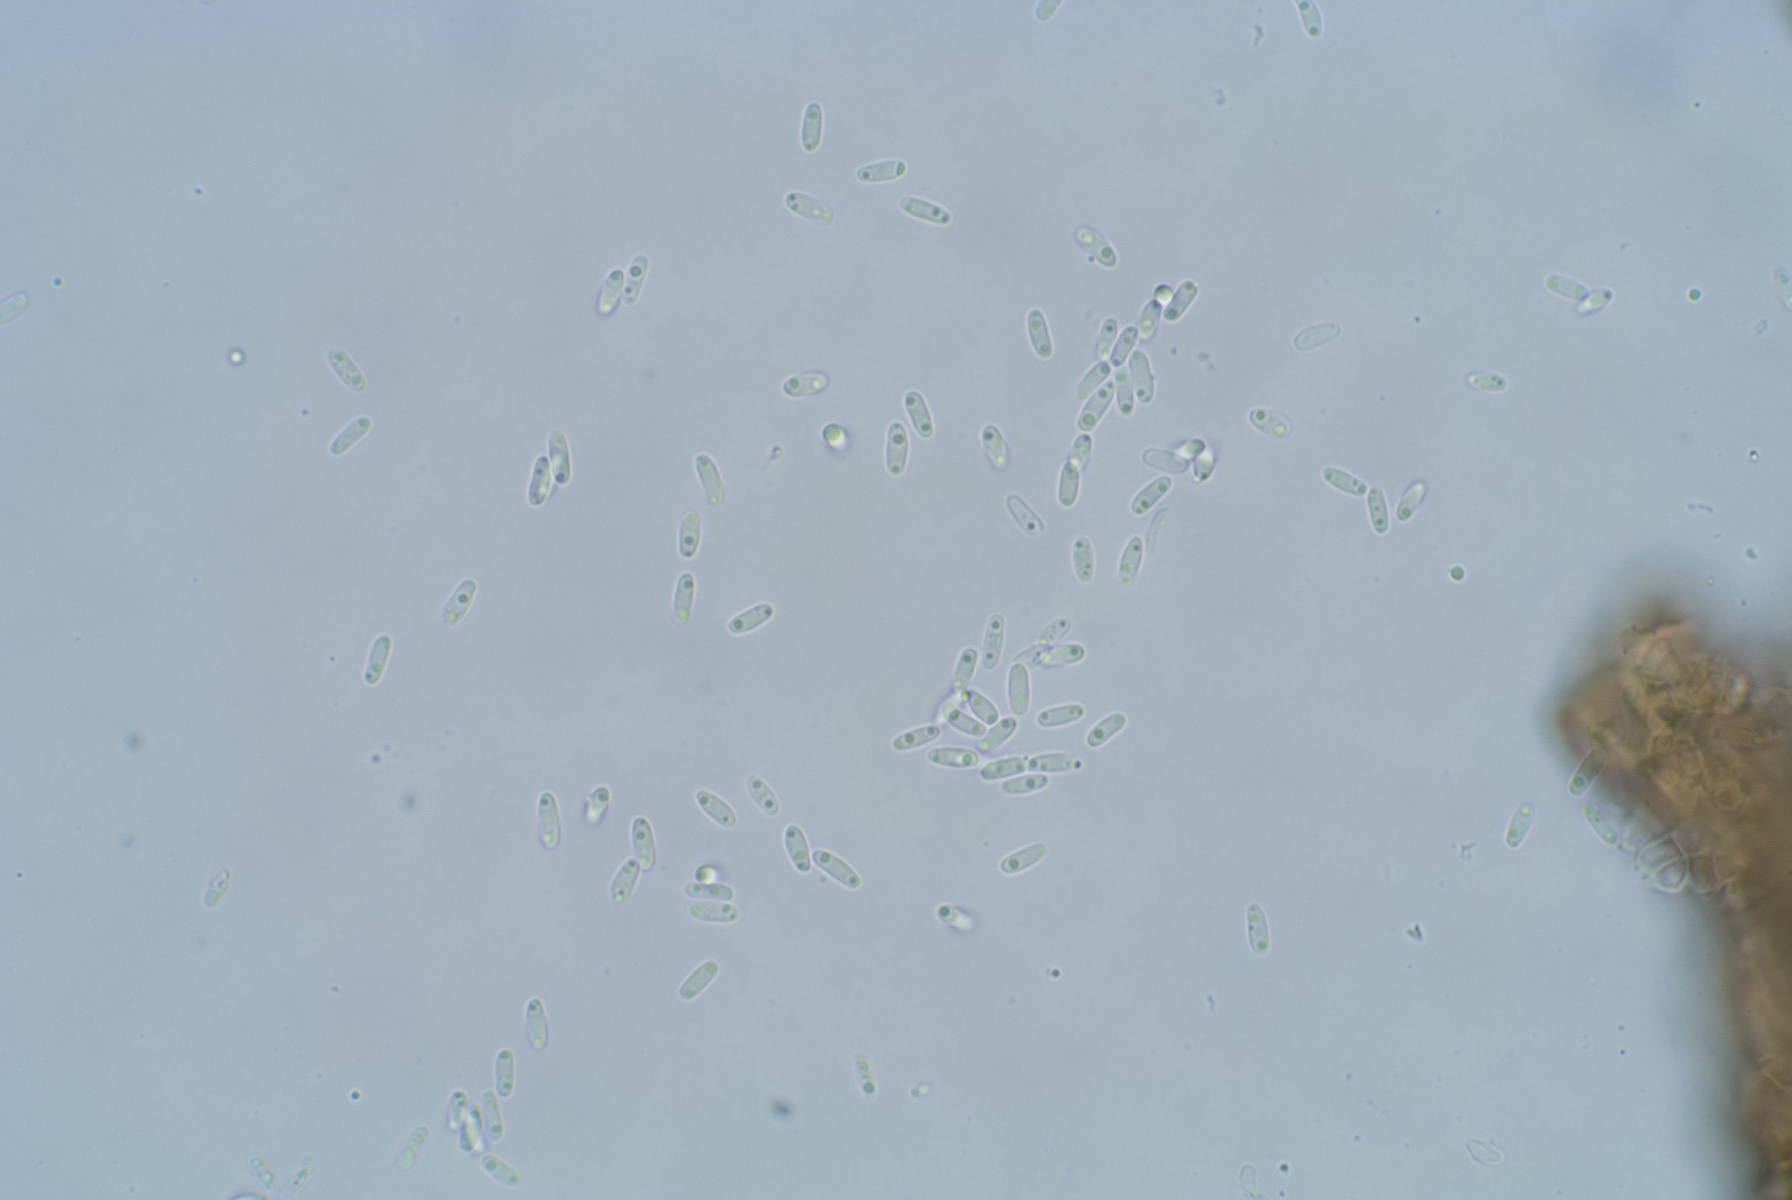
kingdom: Fungi
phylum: Ascomycota
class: Dothideomycetes
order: Pleosporales
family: Leptosphaeriaceae
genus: Leptosphaeria
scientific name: Leptosphaeria acuta
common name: spids kulkegle
